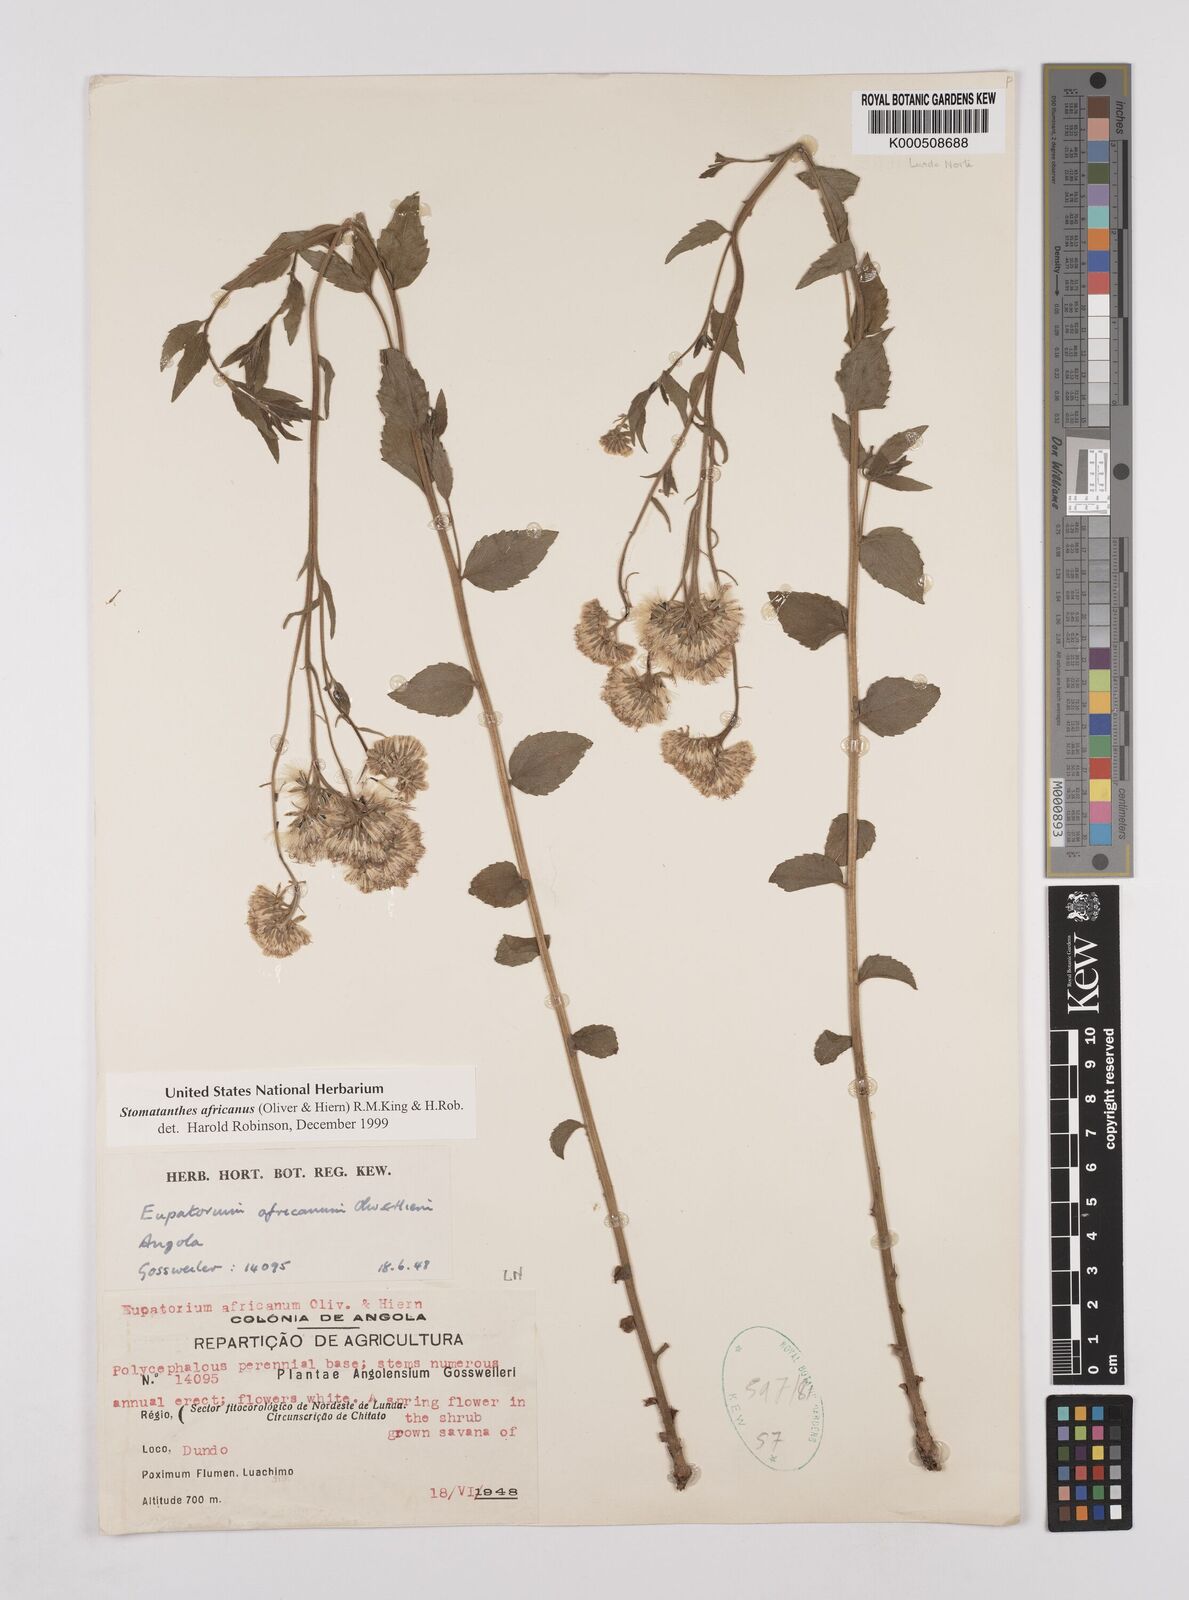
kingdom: Plantae
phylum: Tracheophyta
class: Magnoliopsida
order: Asterales
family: Asteraceae
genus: Stomatanthes
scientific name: Stomatanthes africanus
